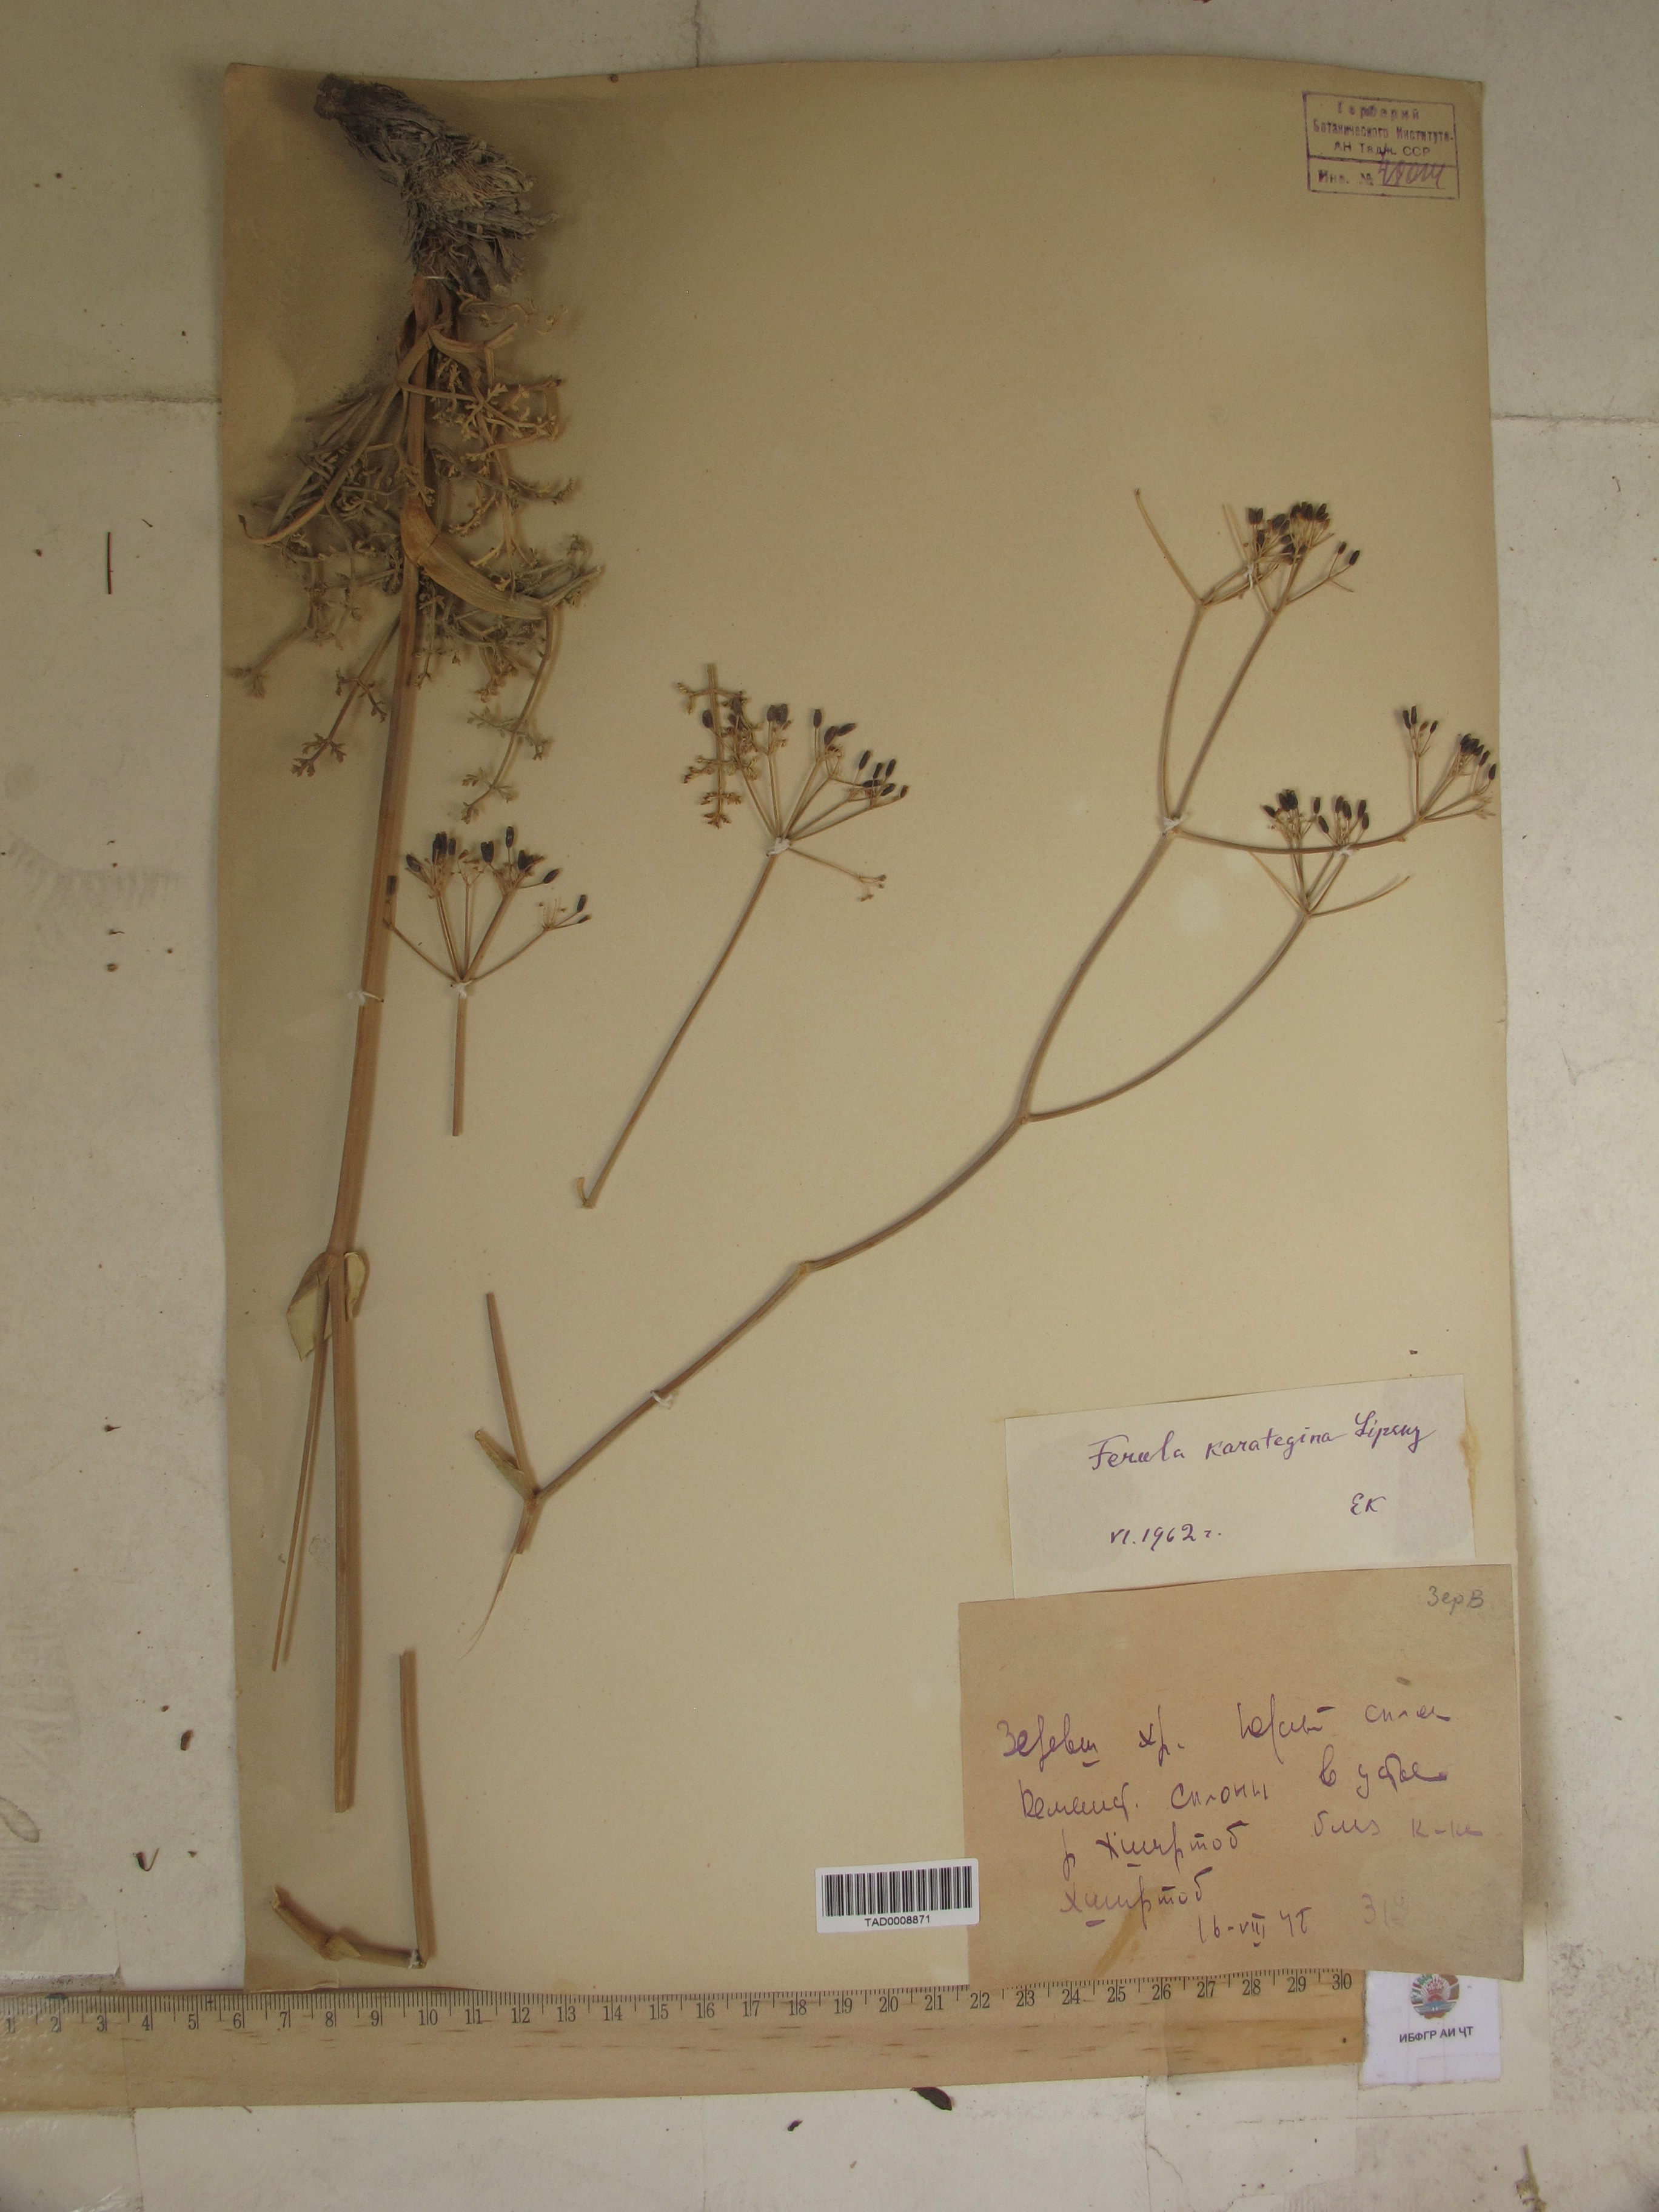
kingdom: Plantae
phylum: Tracheophyta
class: Magnoliopsida
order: Apiales
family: Apiaceae
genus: Ferula
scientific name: Ferula karategina
